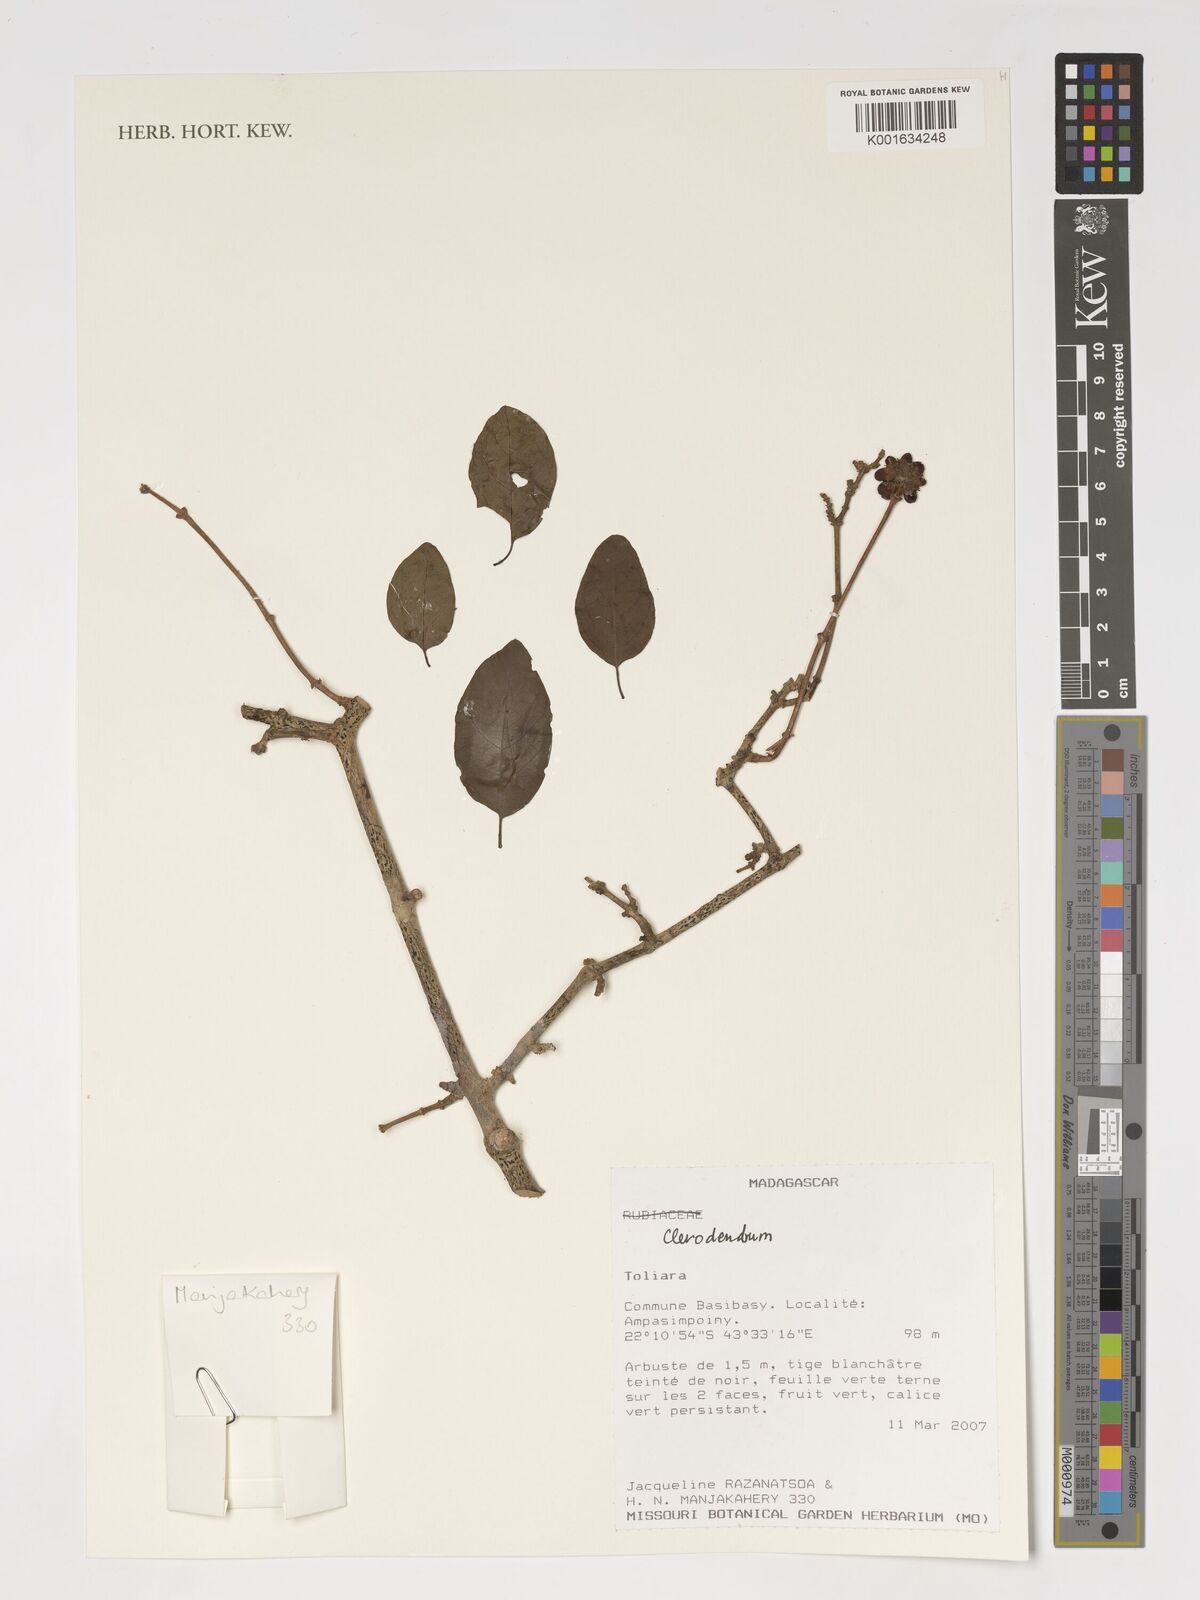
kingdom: Plantae
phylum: Tracheophyta
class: Magnoliopsida
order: Lamiales
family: Lamiaceae
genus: Clerodendrum
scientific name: Clerodendrum
